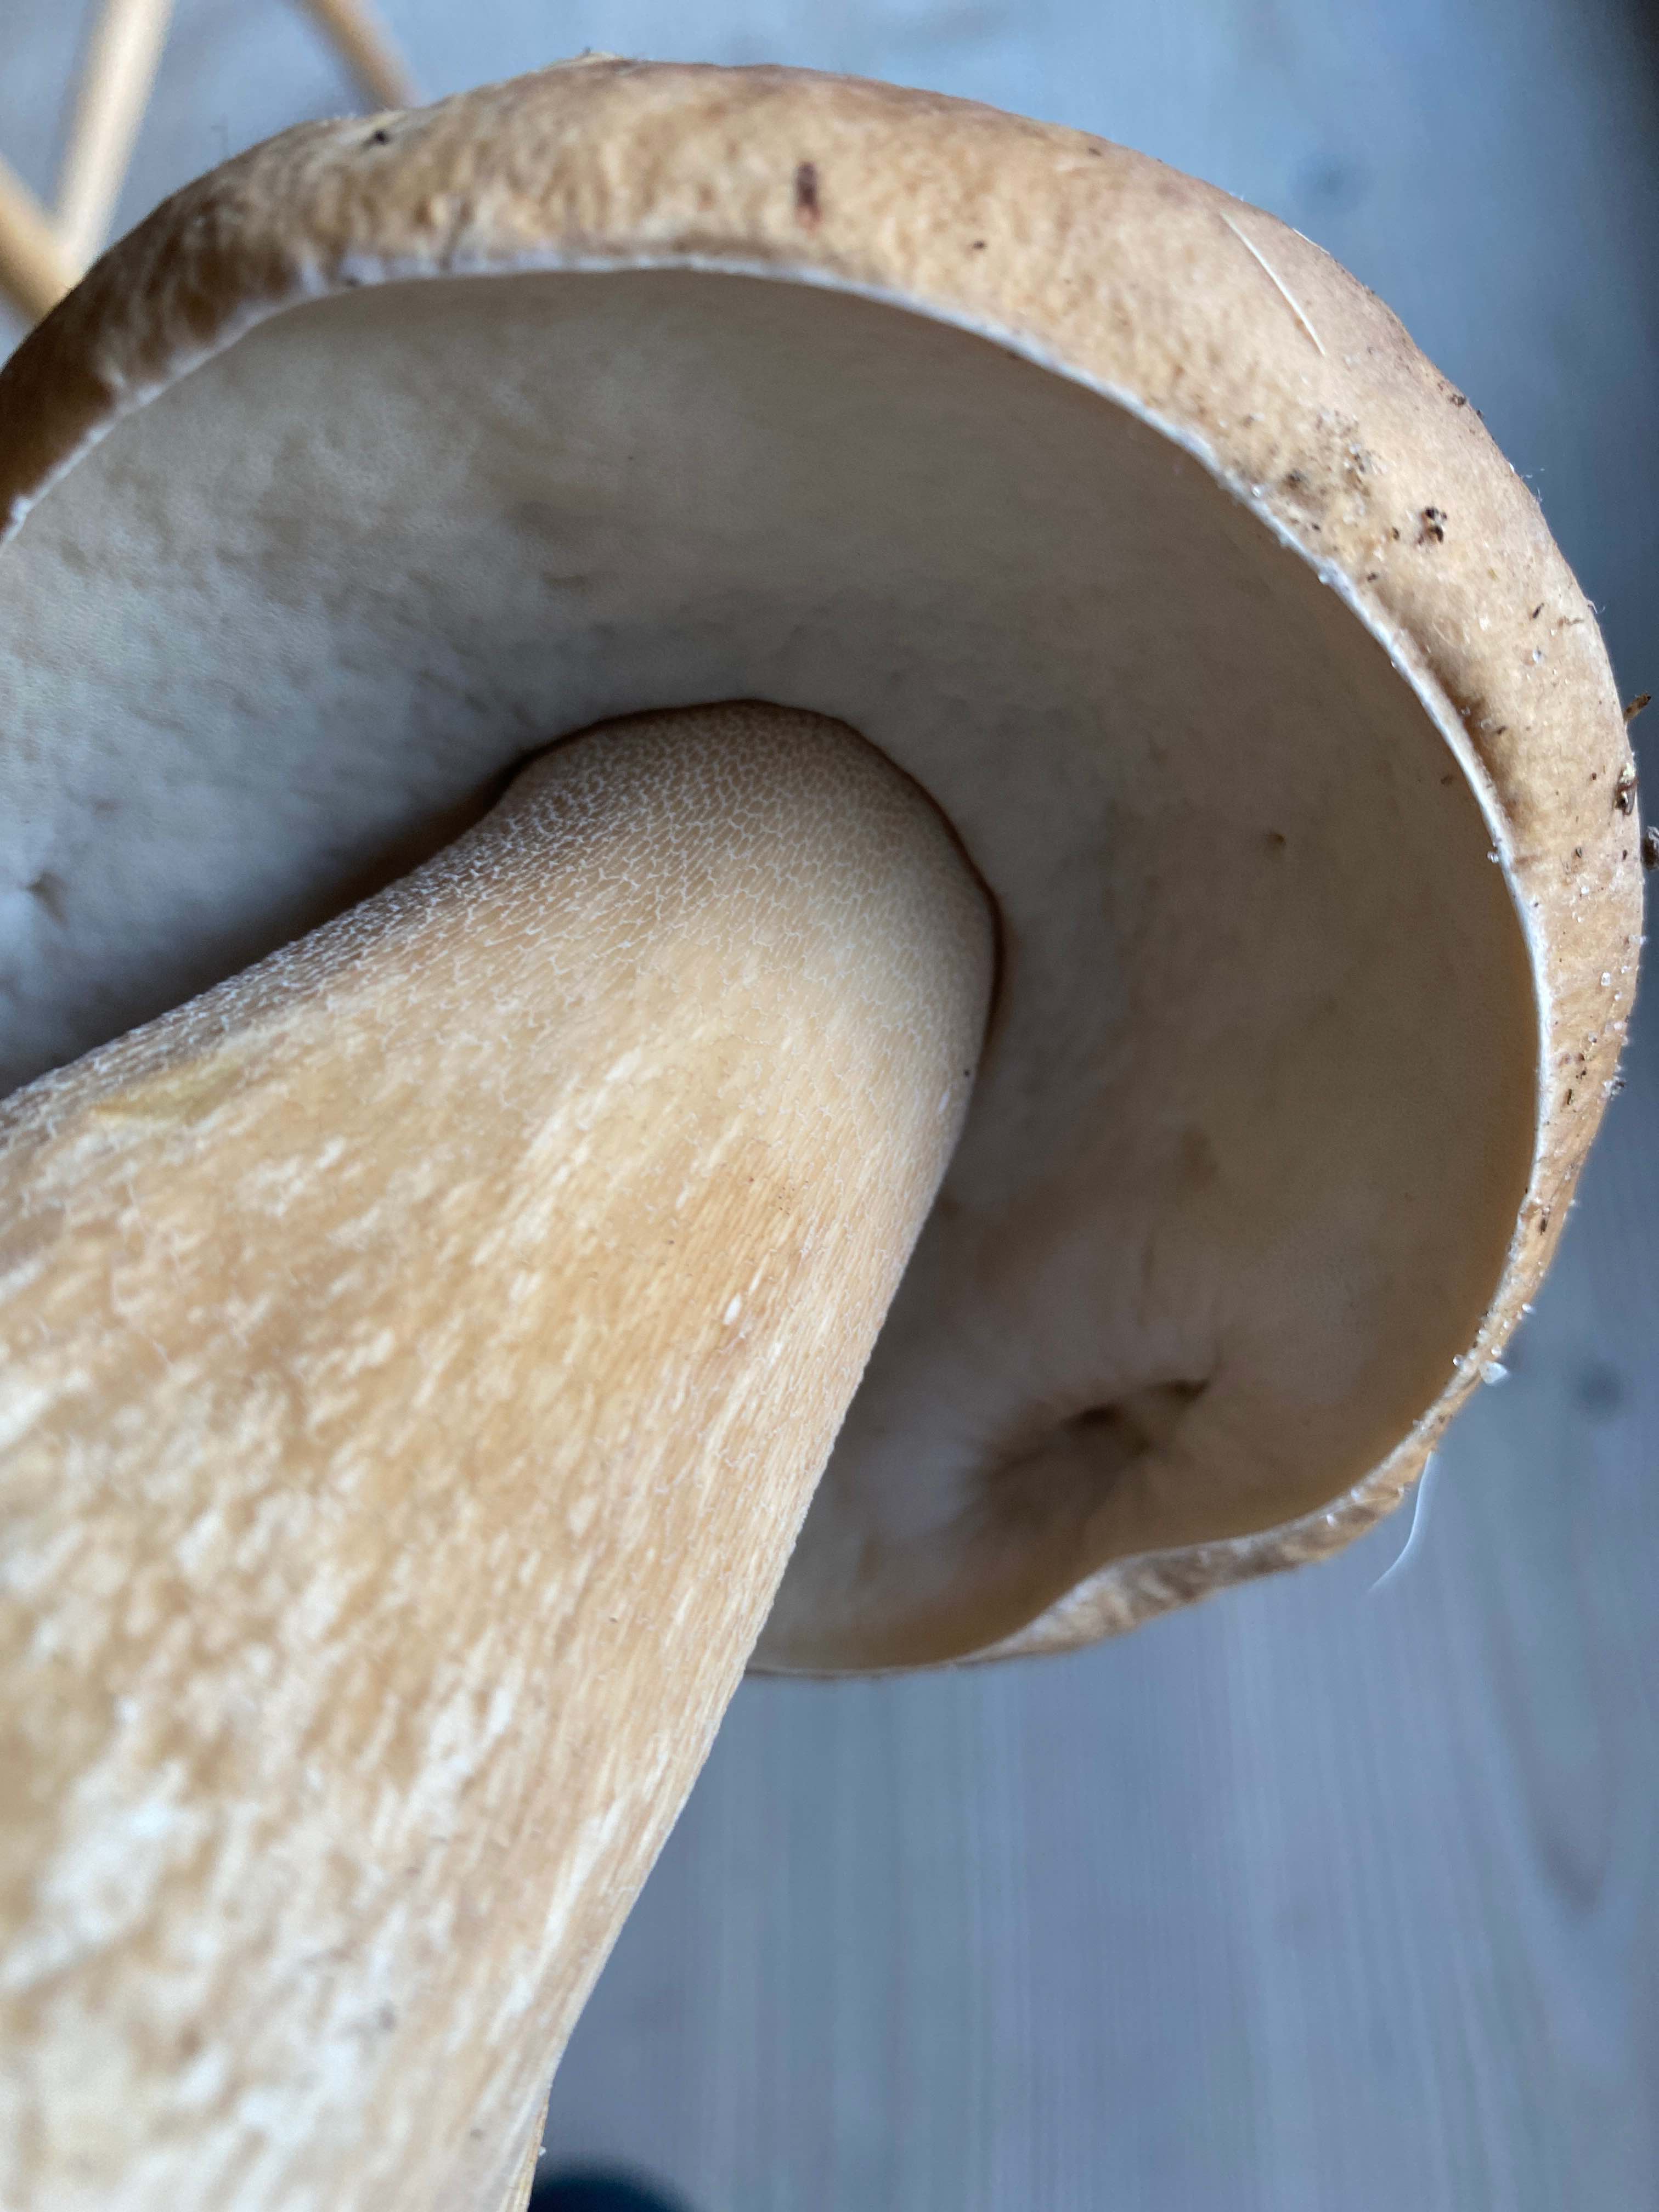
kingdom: Fungi
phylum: Basidiomycota
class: Agaricomycetes
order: Boletales
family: Boletaceae
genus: Boletus
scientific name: Boletus edulis
